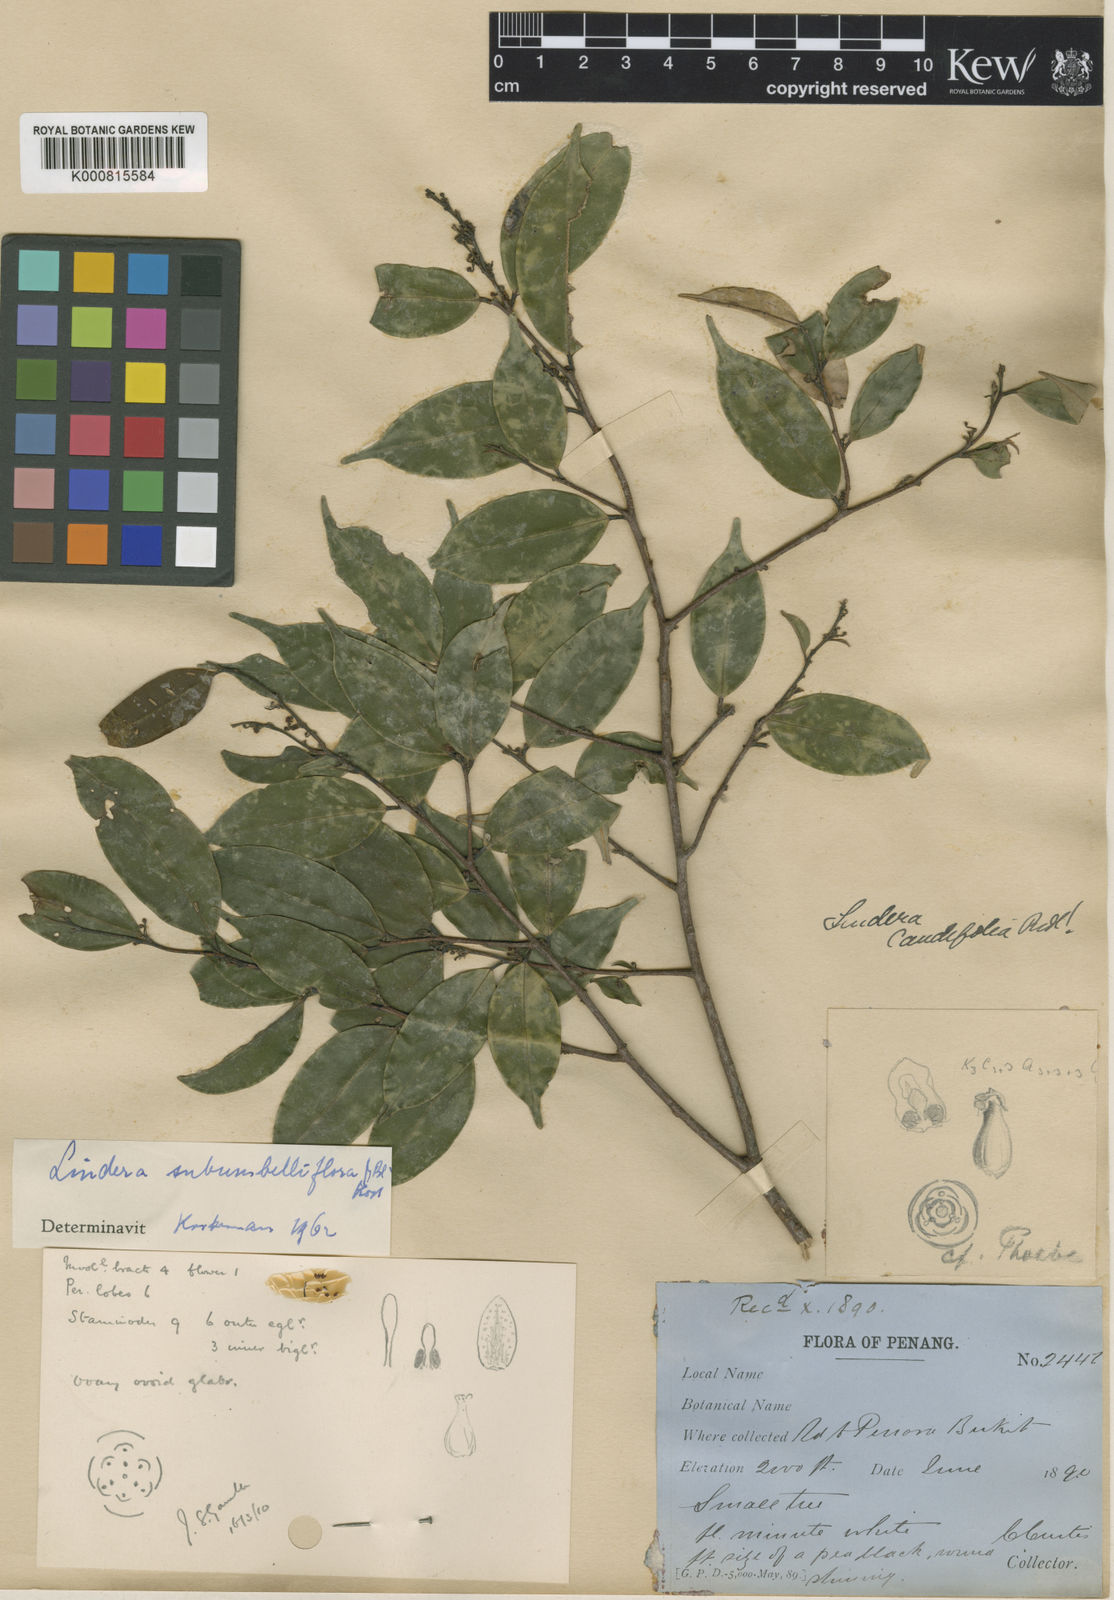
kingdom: Plantae
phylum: Tracheophyta
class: Magnoliopsida
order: Laurales
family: Lauraceae
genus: Litsea
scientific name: Litsea subumbelliflora
